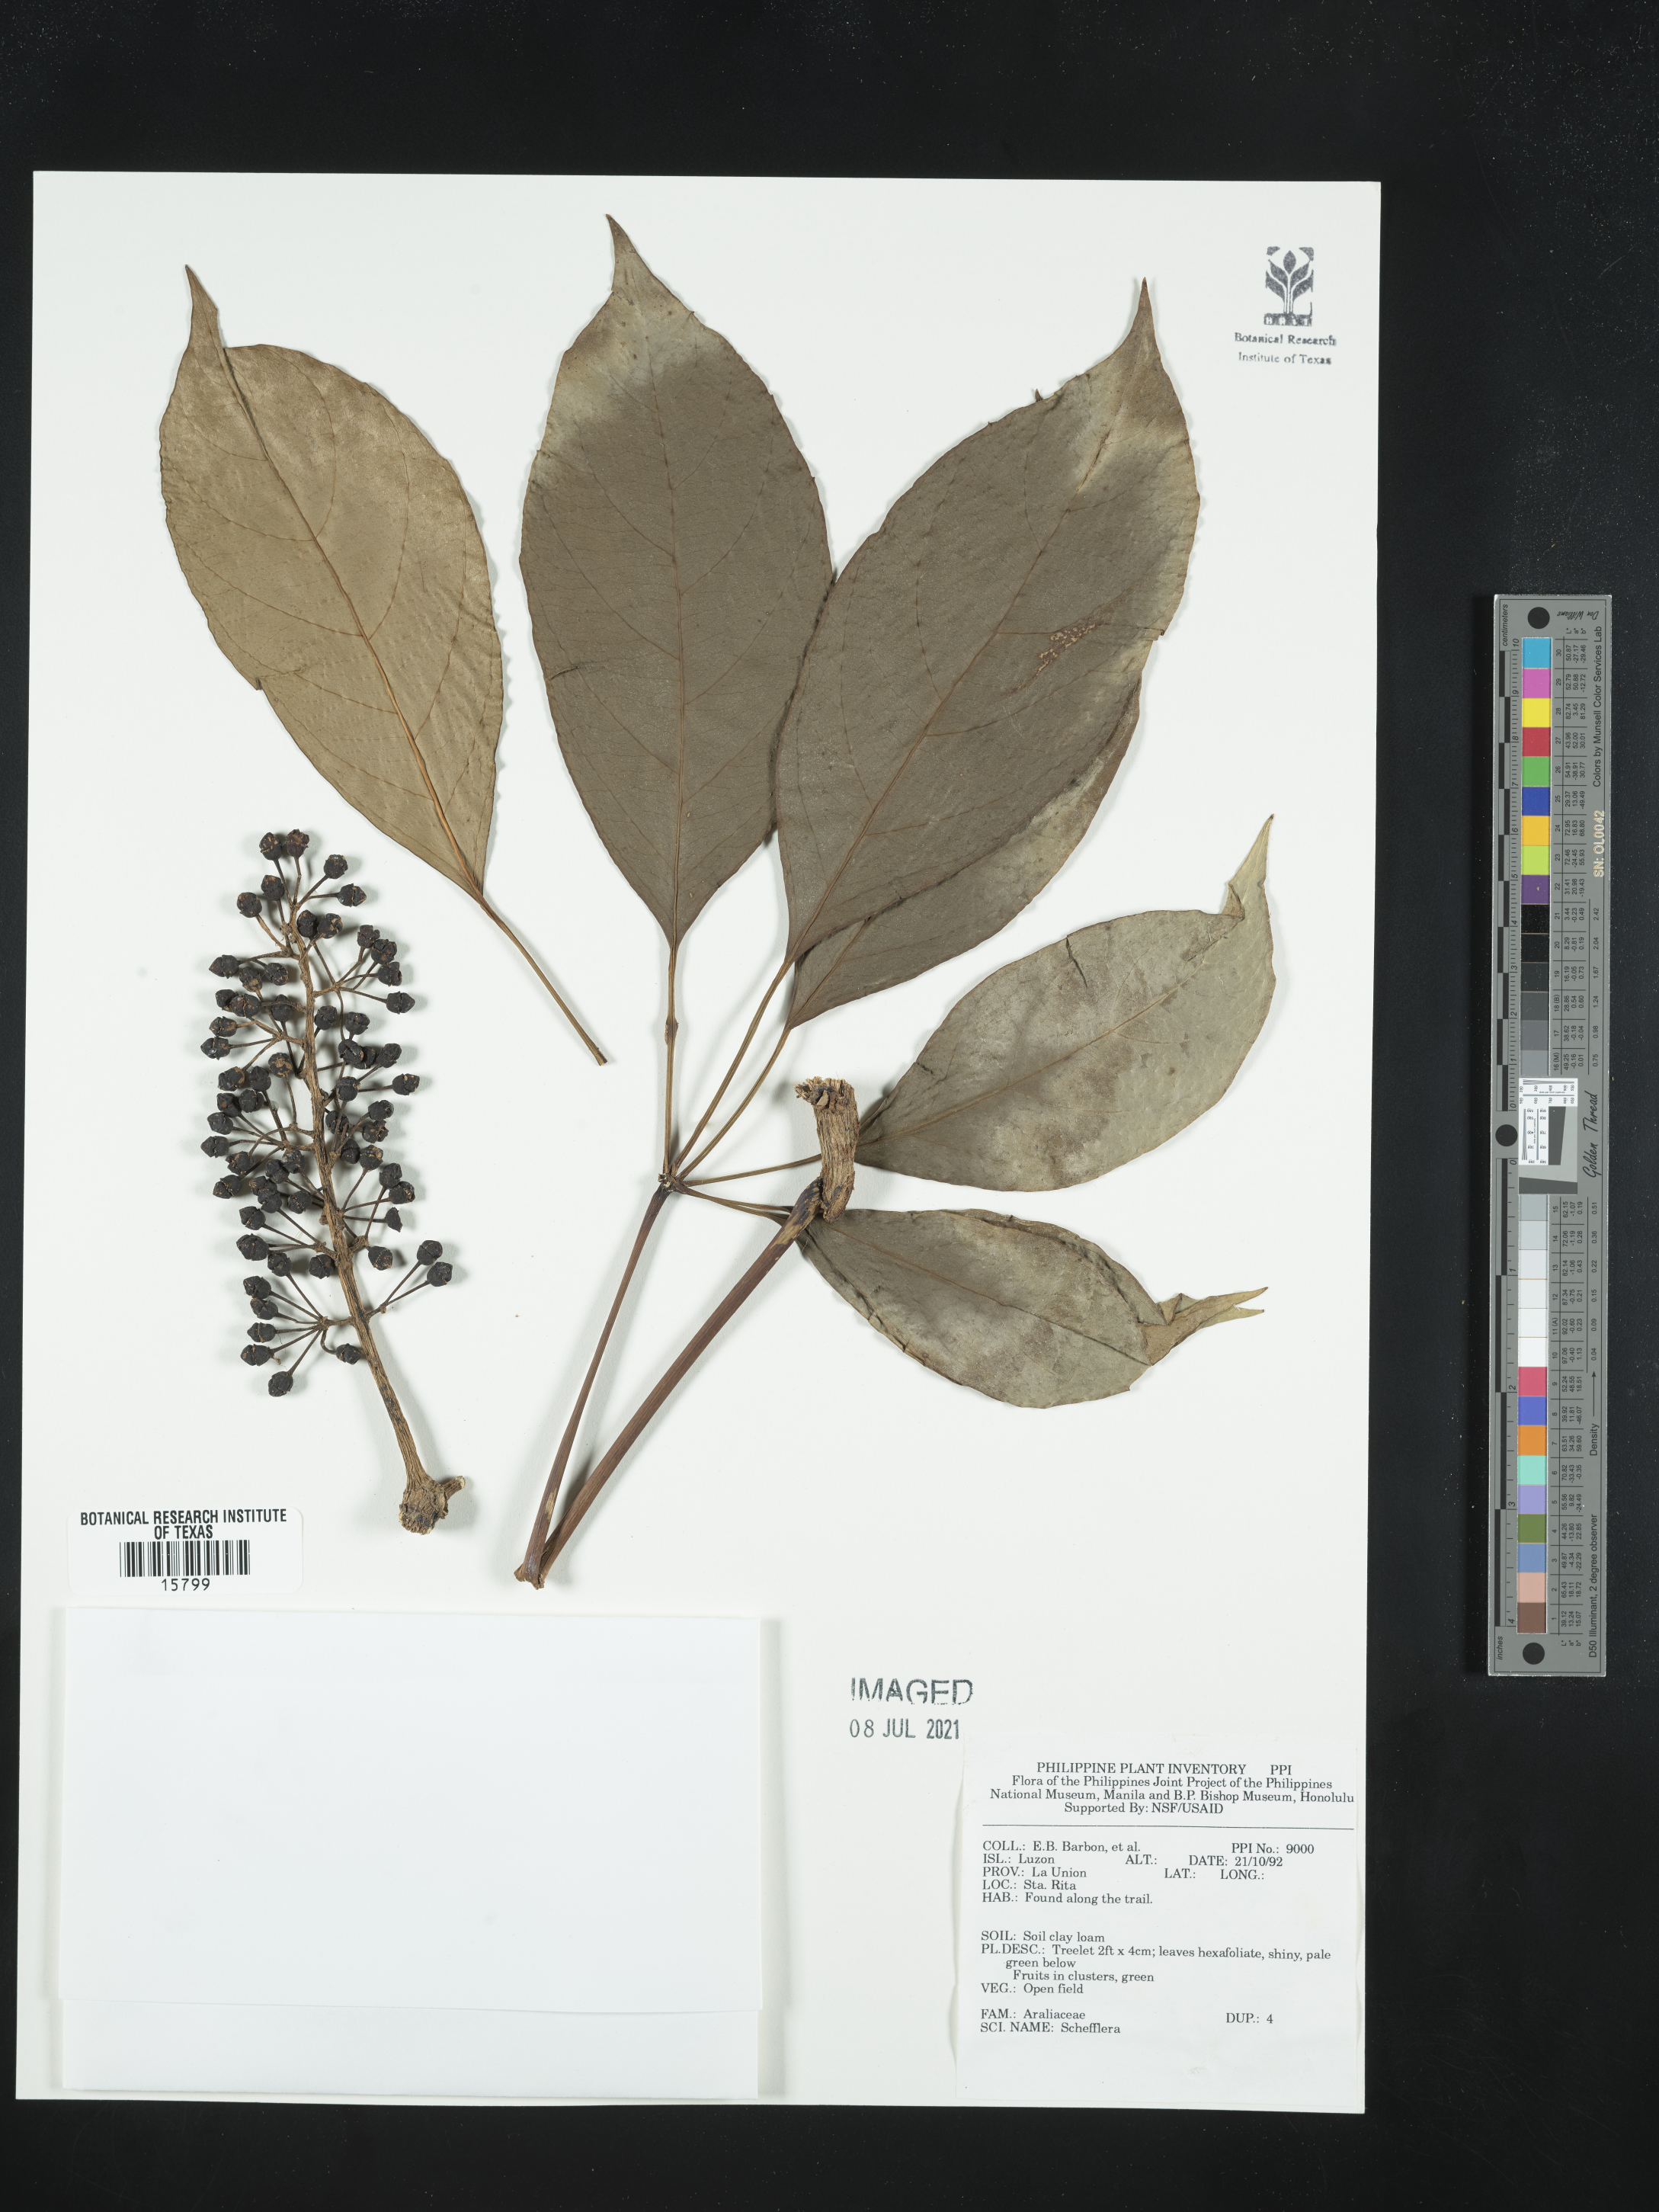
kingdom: Plantae
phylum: Tracheophyta
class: Magnoliopsida
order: Apiales
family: Araliaceae
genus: Schefflera
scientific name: Schefflera
